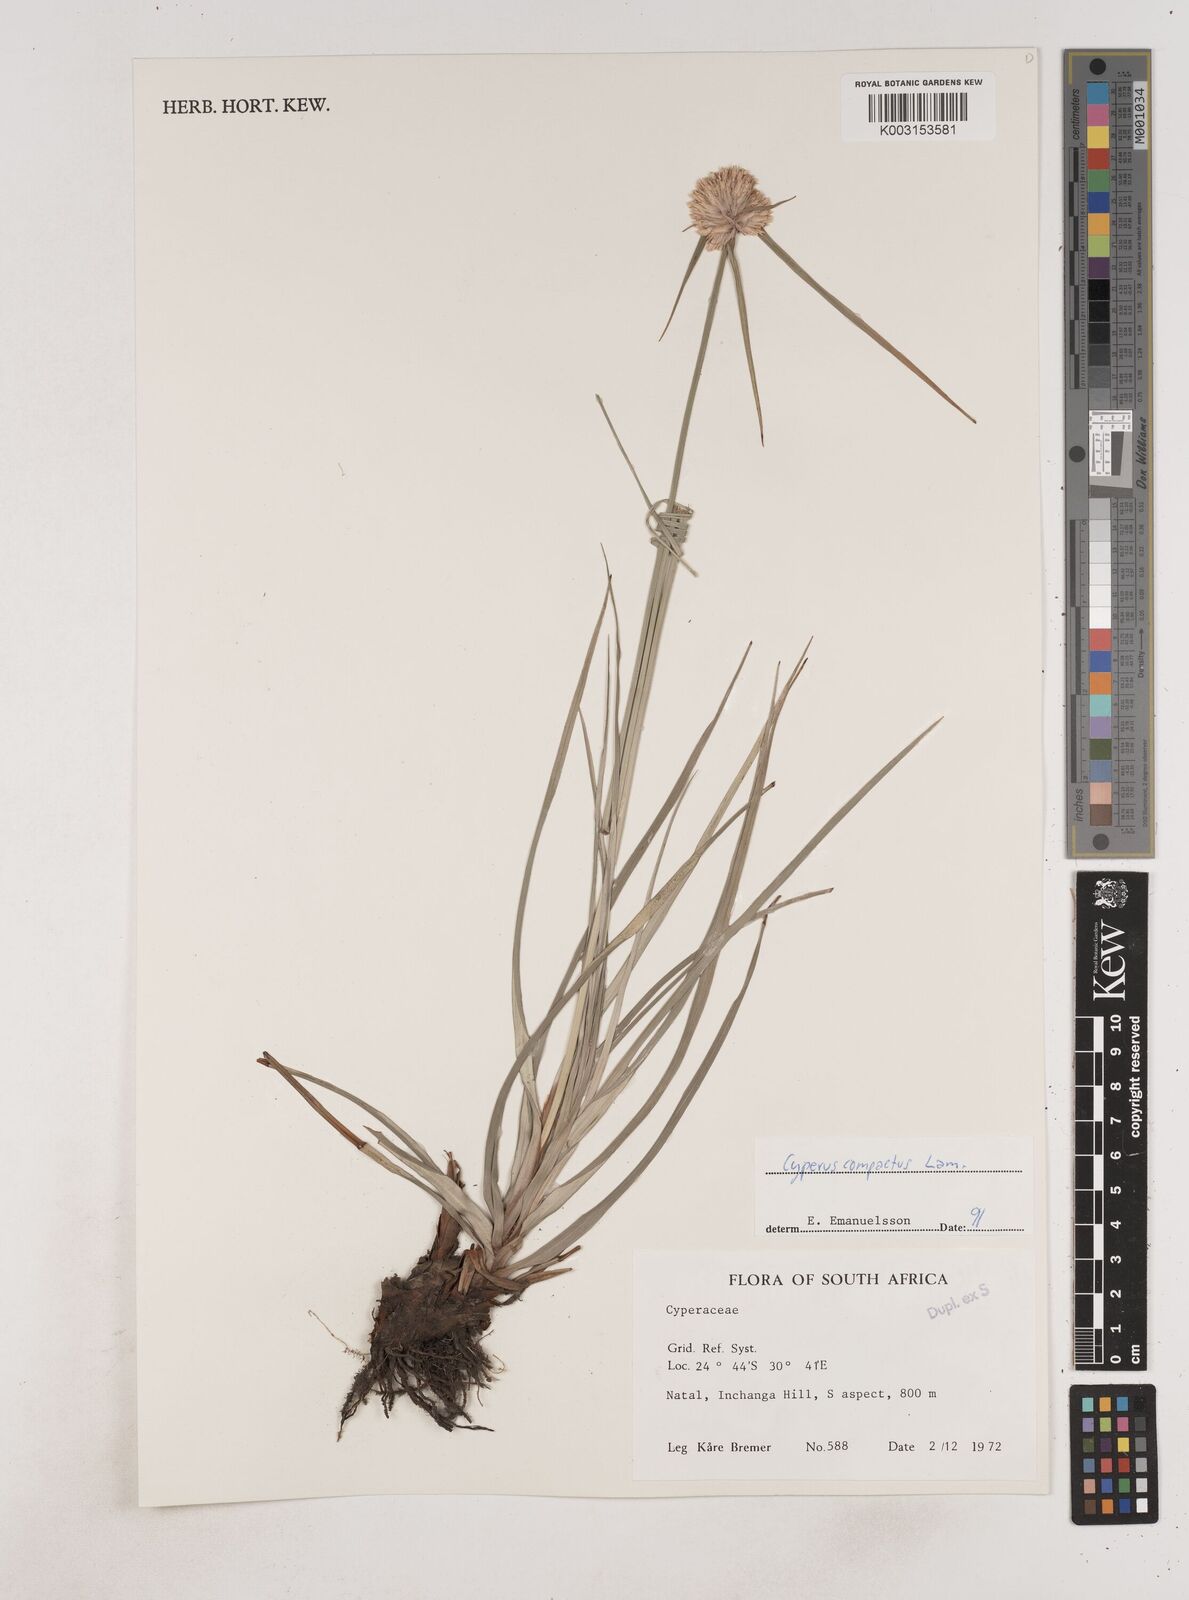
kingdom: Plantae
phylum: Tracheophyta
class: Liliopsida
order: Poales
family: Cyperaceae
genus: Cyperus
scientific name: Cyperus niveus
